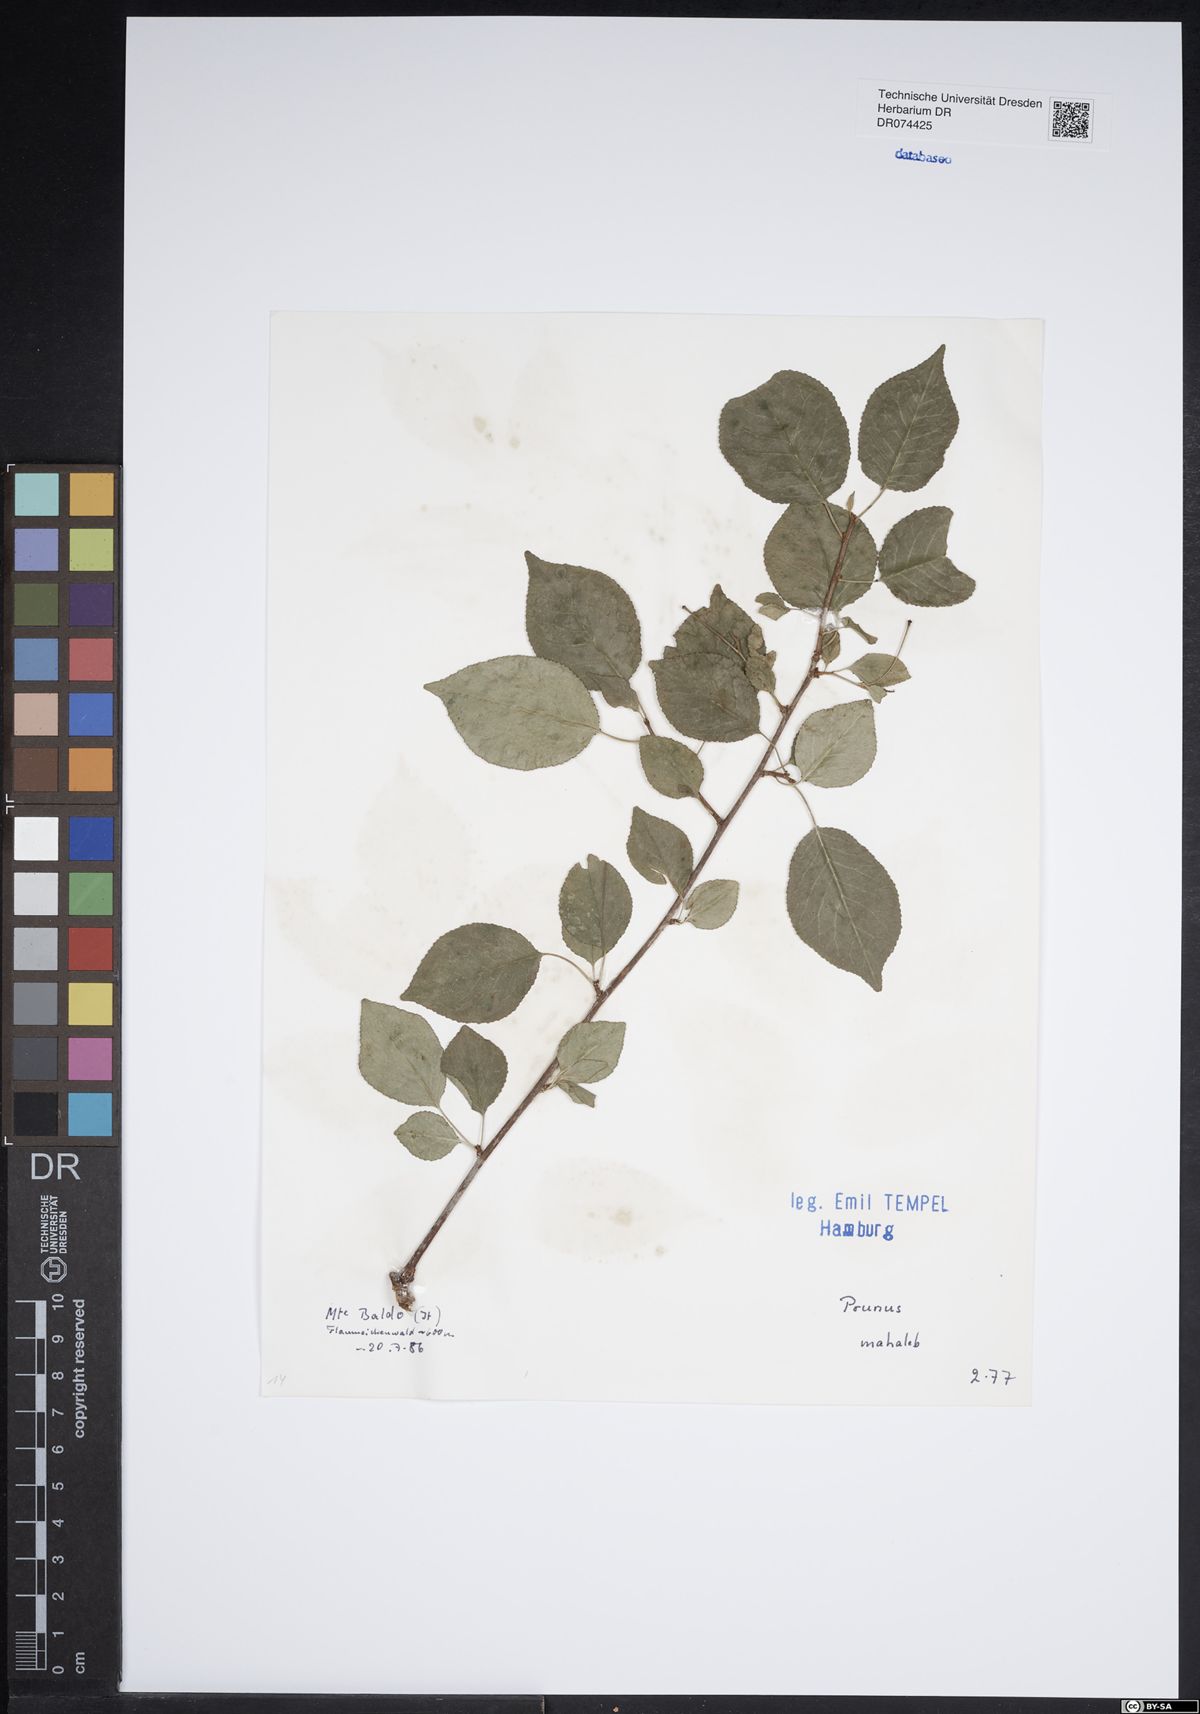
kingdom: Plantae
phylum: Tracheophyta
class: Magnoliopsida
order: Rosales
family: Rosaceae
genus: Prunus
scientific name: Prunus mahaleb
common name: Mahaleb cherry
